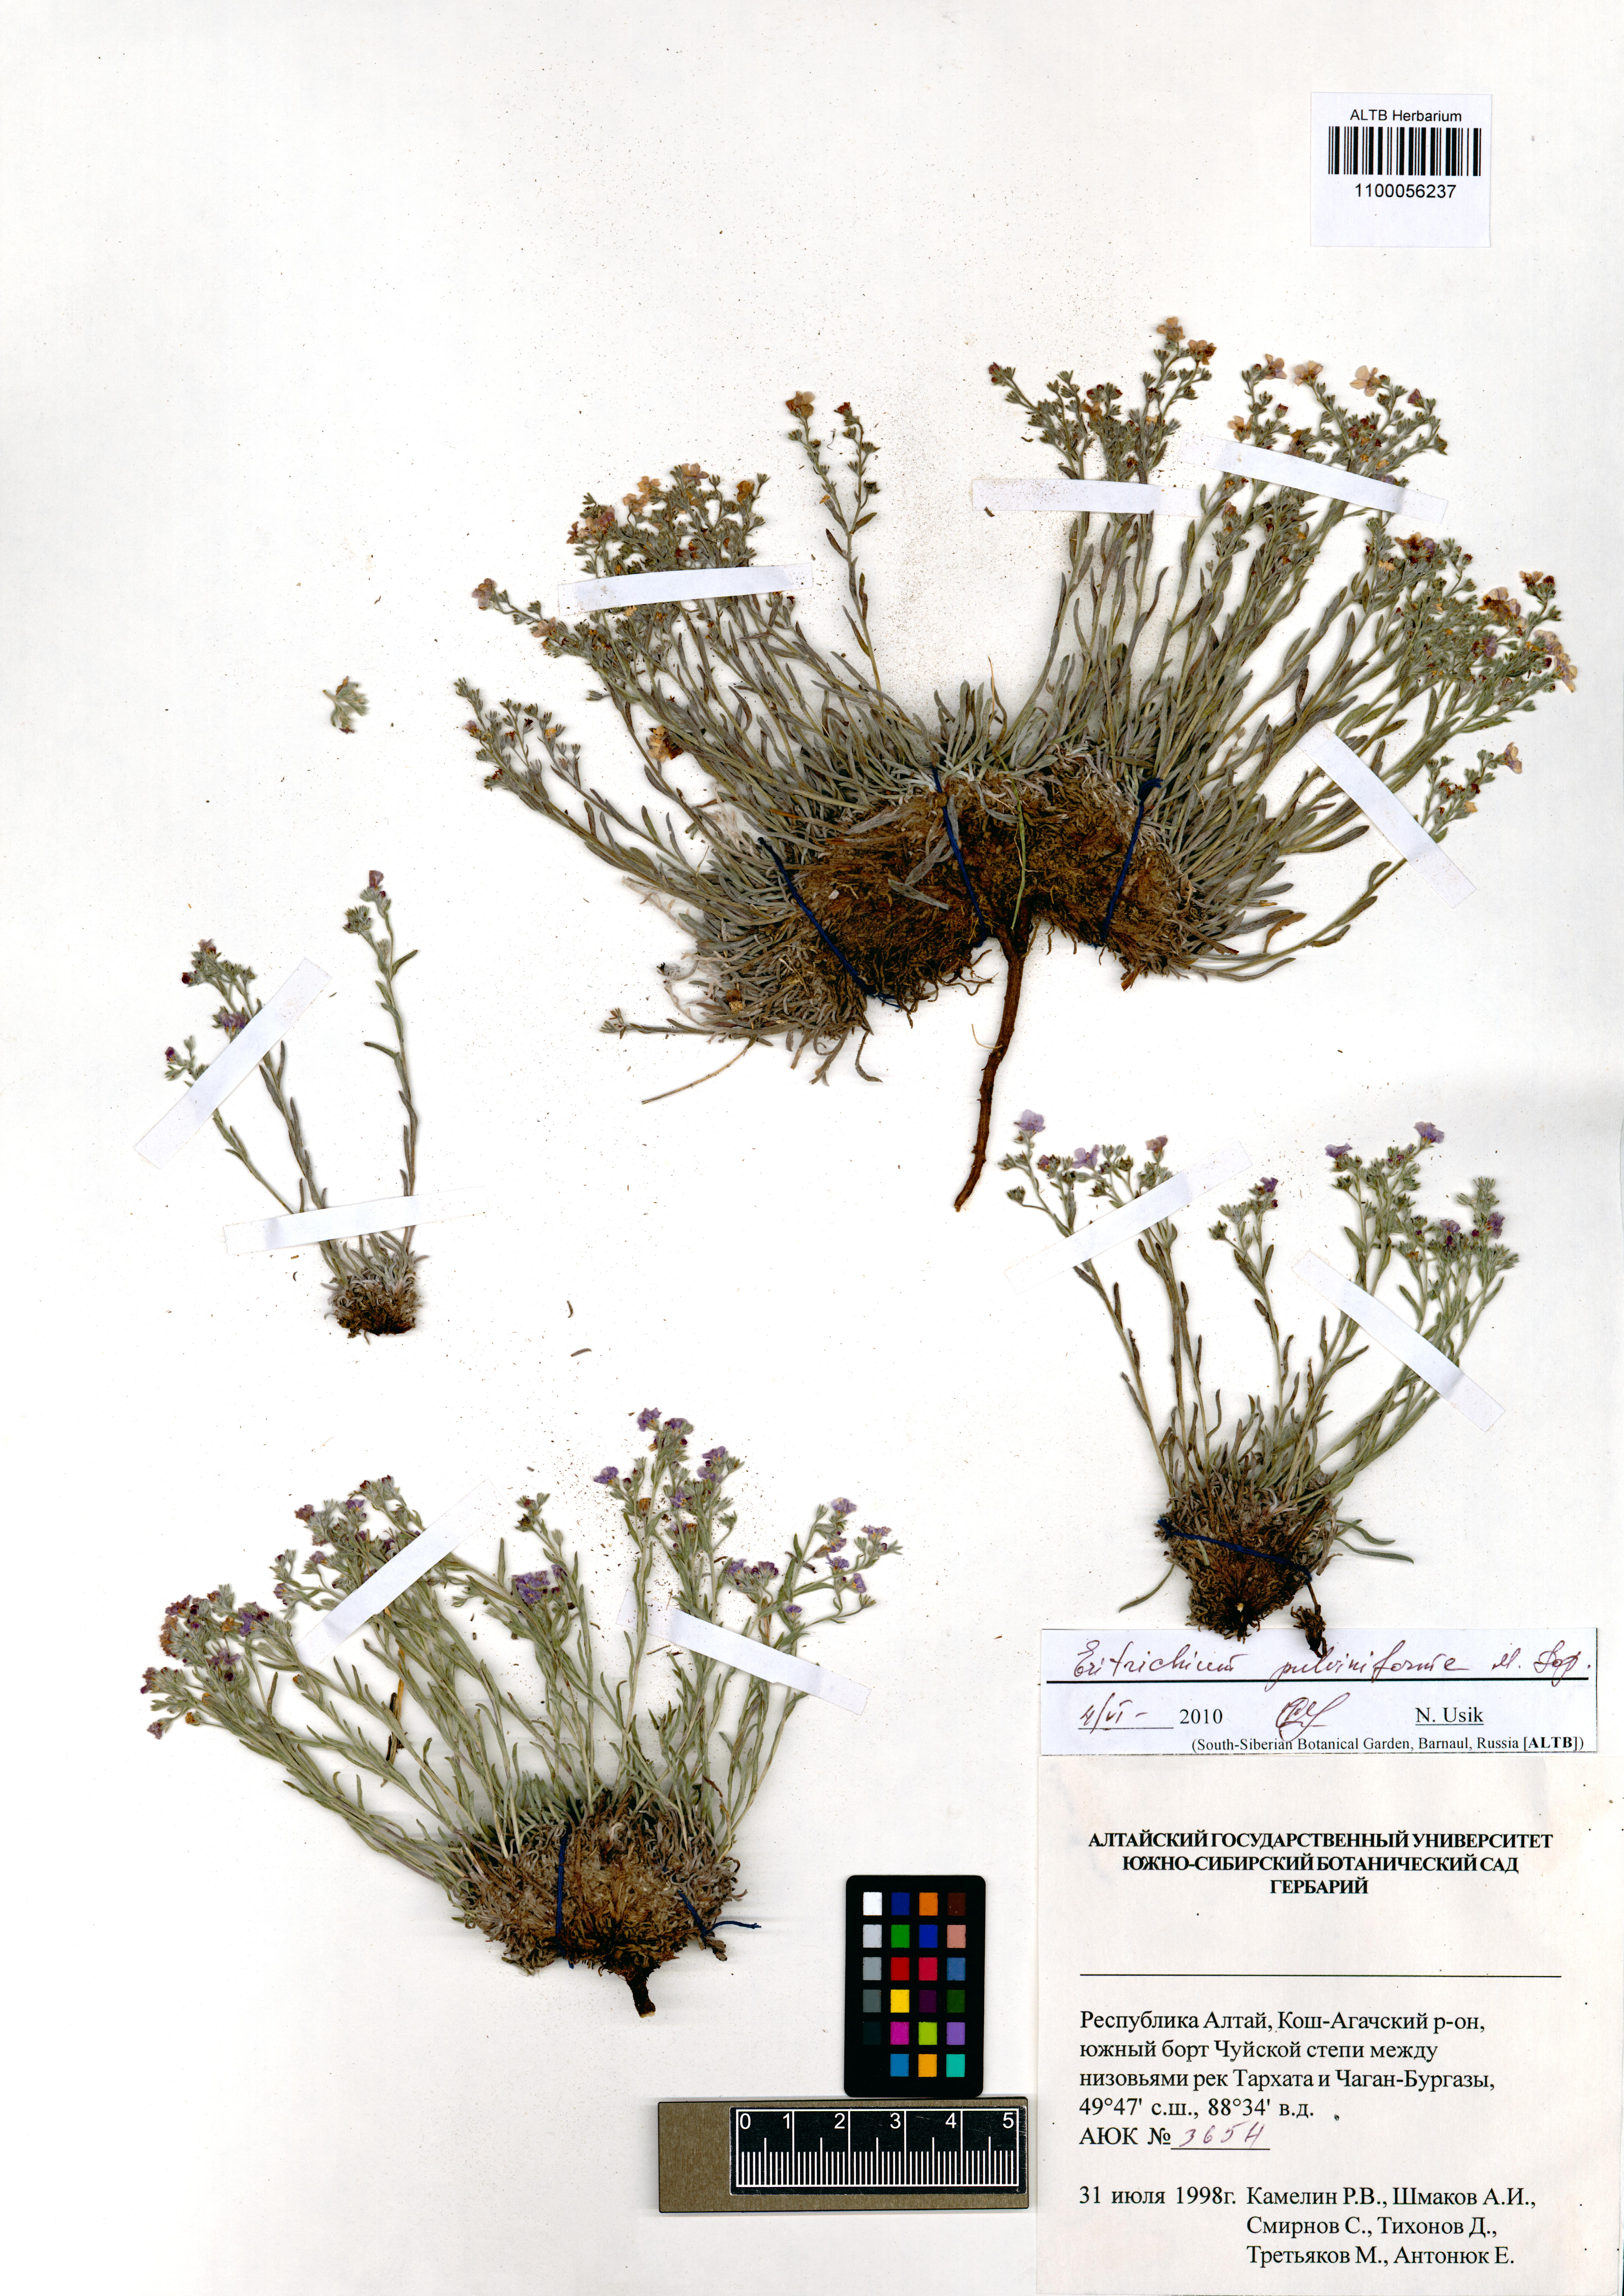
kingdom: Plantae
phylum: Tracheophyta
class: Magnoliopsida
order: Boraginales
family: Boraginaceae
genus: Eritrichium
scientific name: Eritrichium pauciflorum
